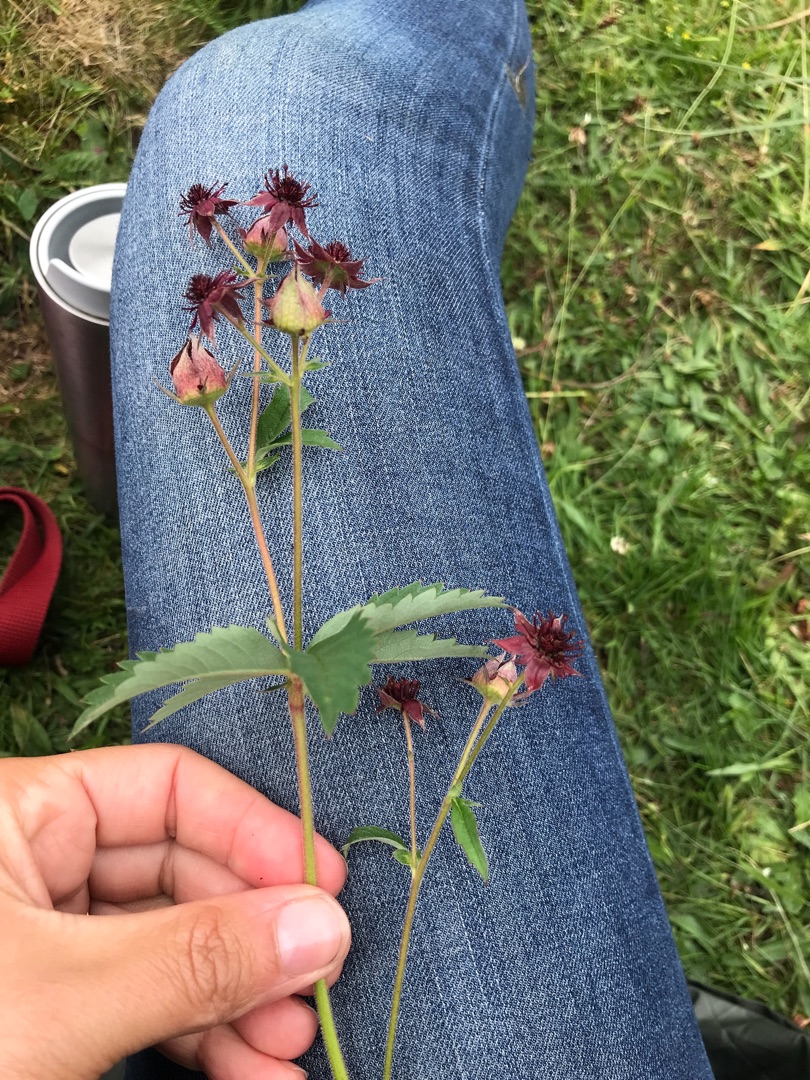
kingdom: Plantae
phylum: Tracheophyta
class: Magnoliopsida
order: Rosales
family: Rosaceae
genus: Comarum
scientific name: Comarum palustre
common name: Kragefod
